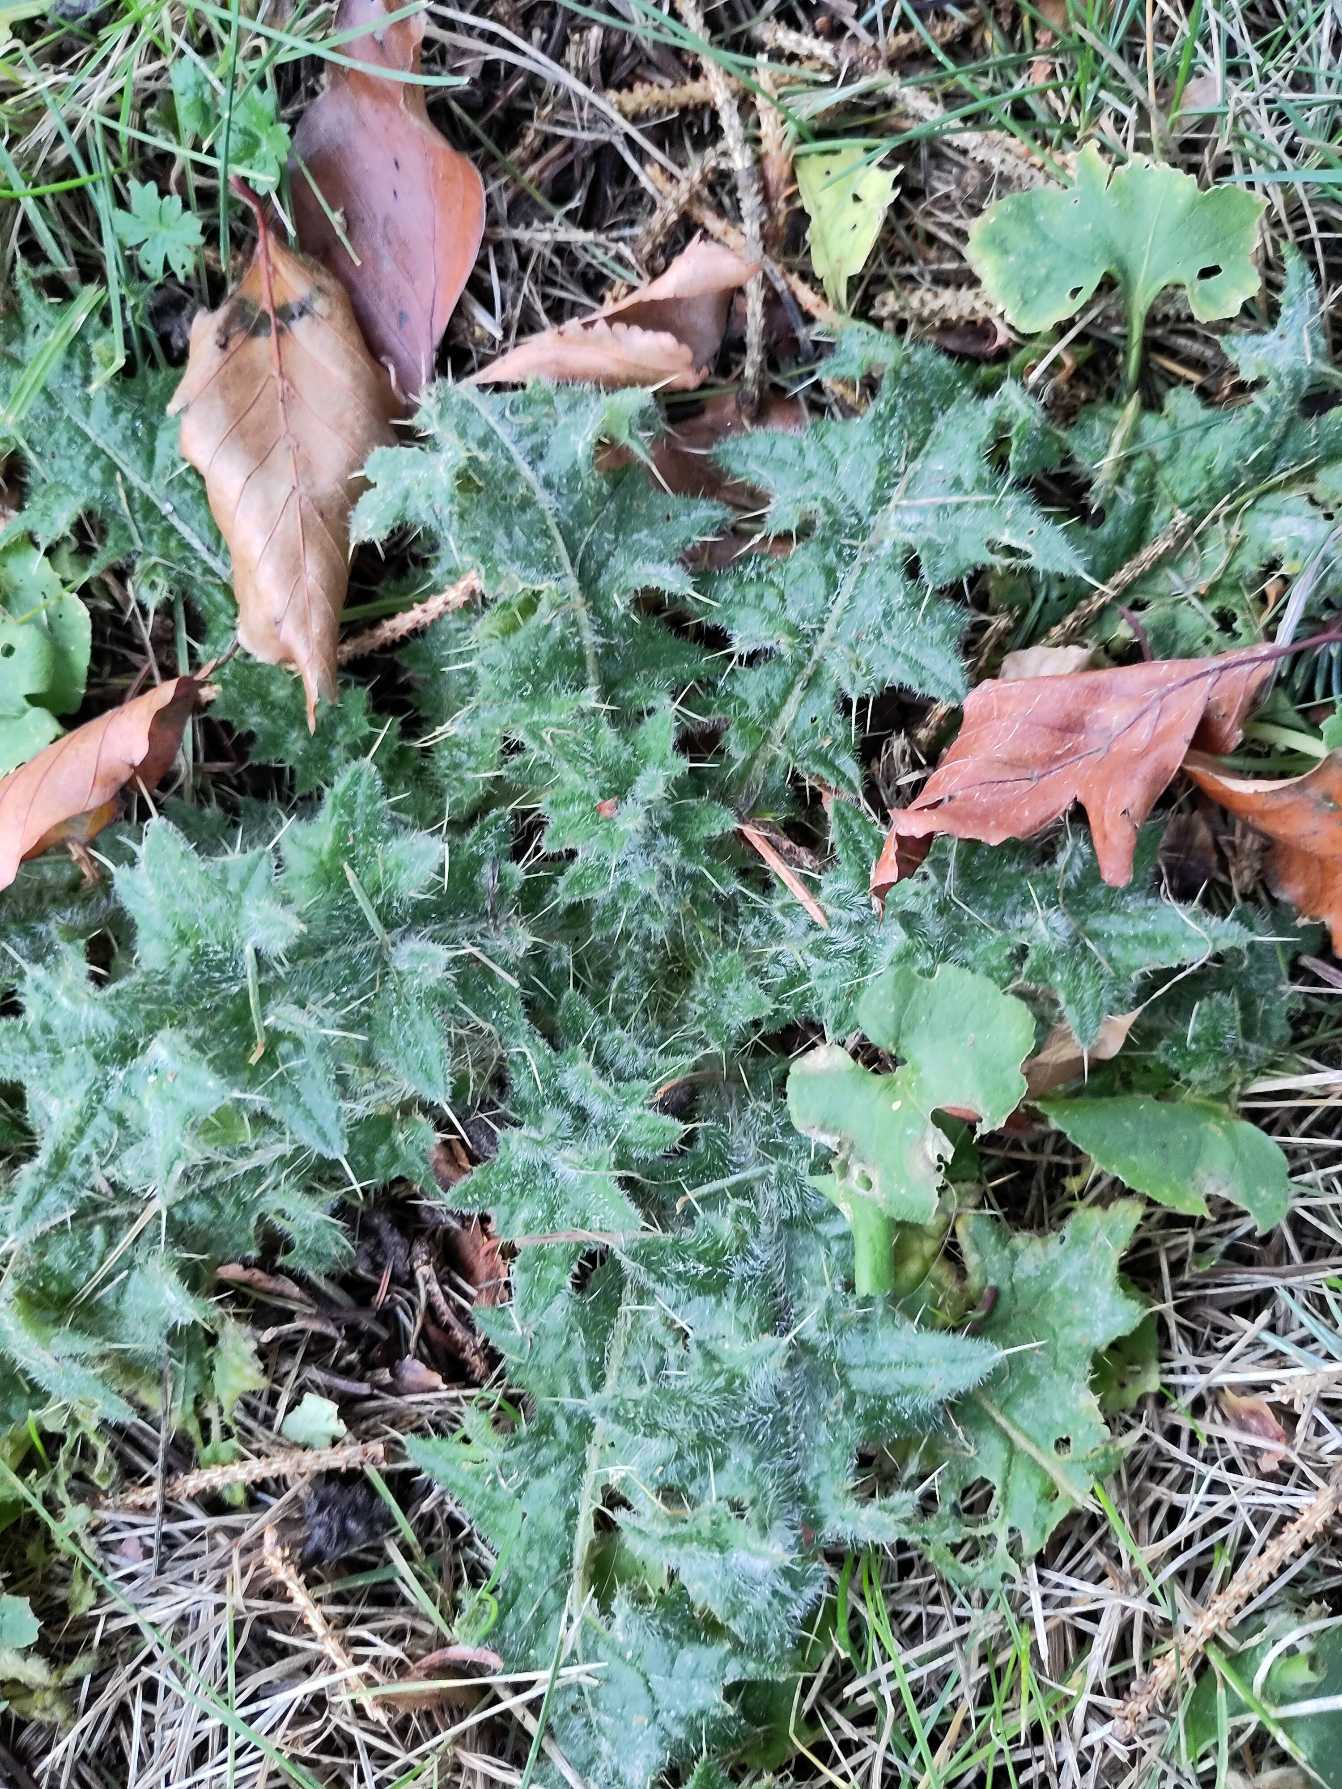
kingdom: Plantae
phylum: Tracheophyta
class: Magnoliopsida
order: Asterales
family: Asteraceae
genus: Cirsium
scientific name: Cirsium vulgare
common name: Horse-tidsel
